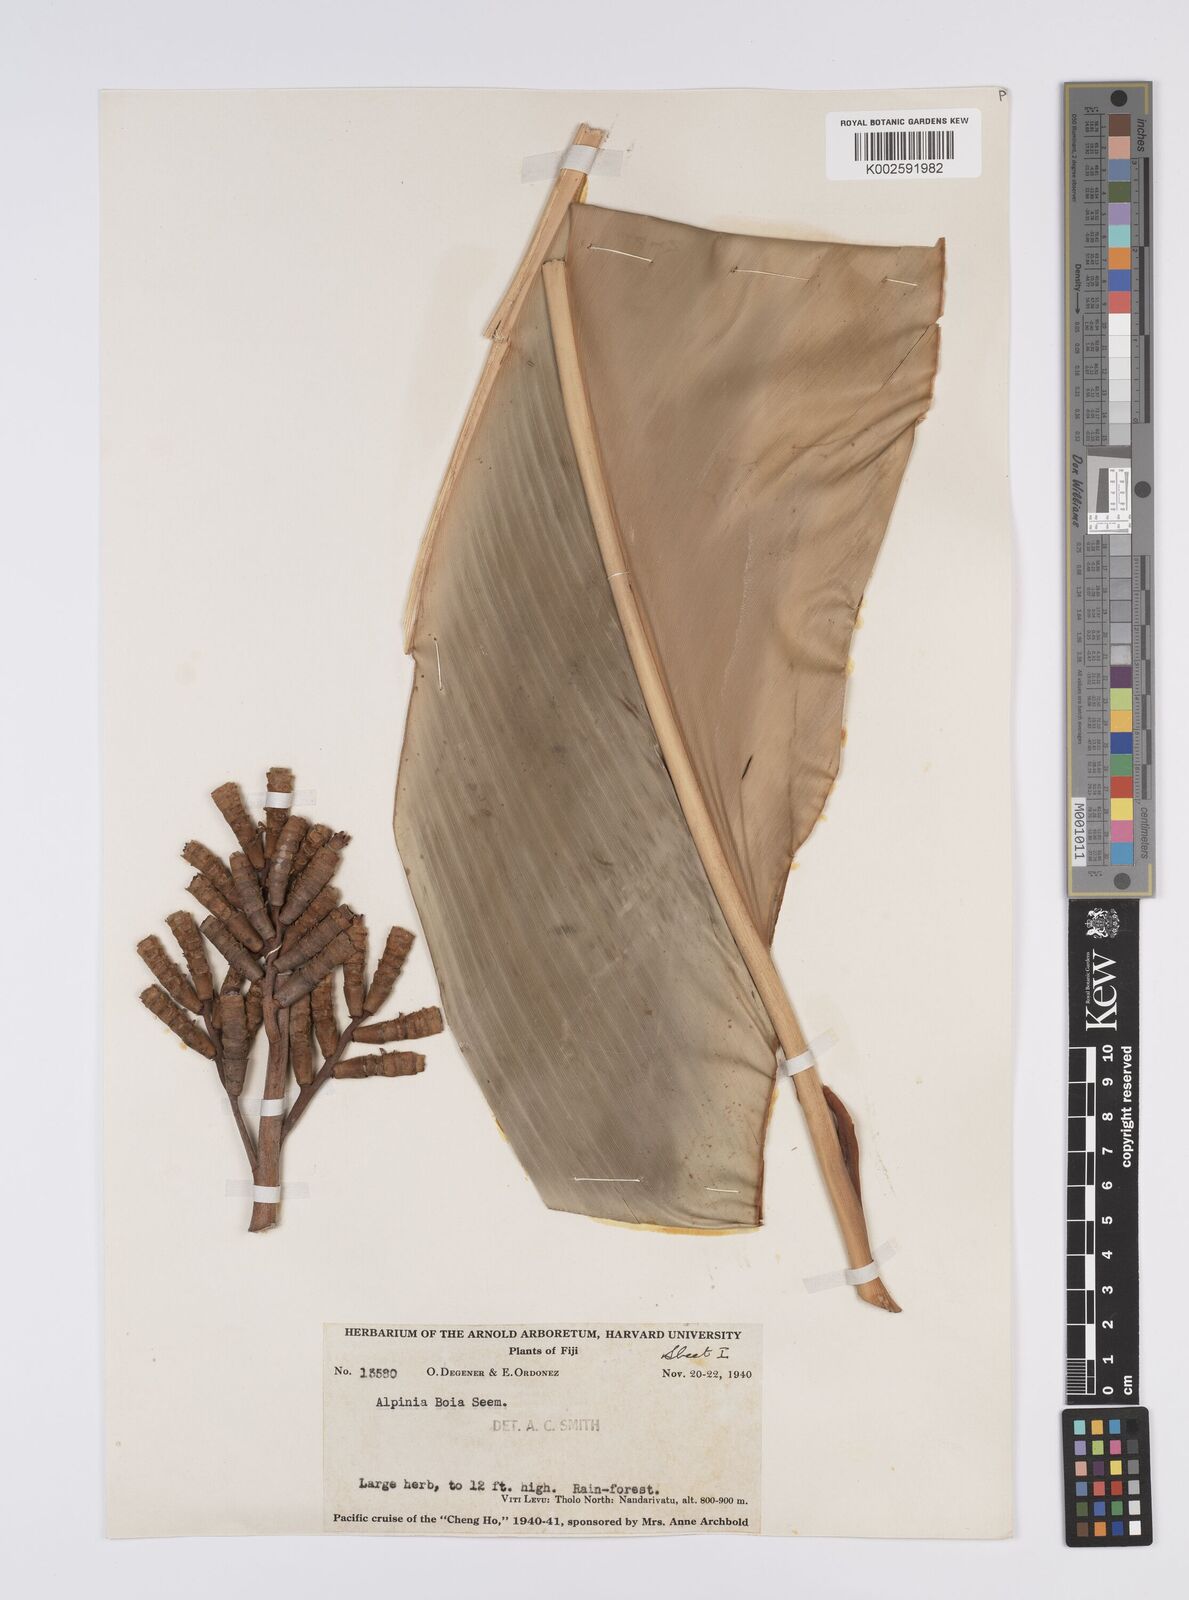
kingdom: Plantae
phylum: Tracheophyta
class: Liliopsida
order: Zingiberales
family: Zingiberaceae
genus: Alpinia
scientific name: Alpinia boia
